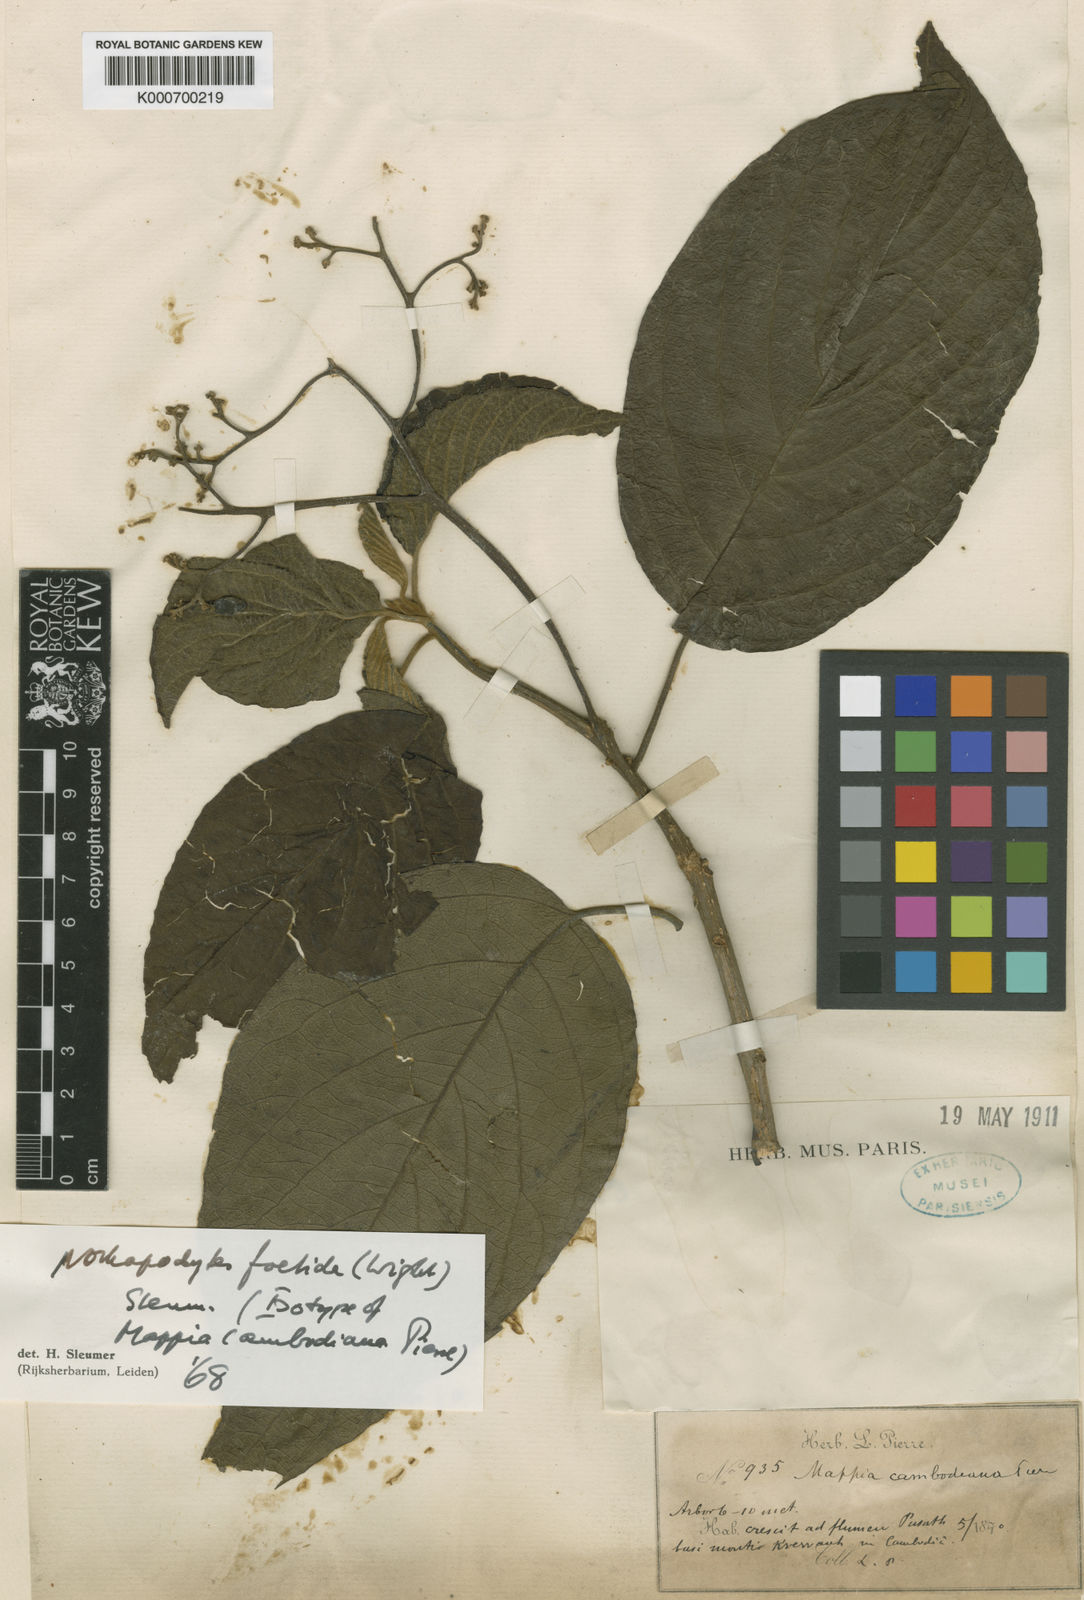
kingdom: Plantae
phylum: Tracheophyta
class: Magnoliopsida
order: Icacinales
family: Icacinaceae
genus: Nothapodytes
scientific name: Nothapodytes nimmoniana
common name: Nothapodytes
